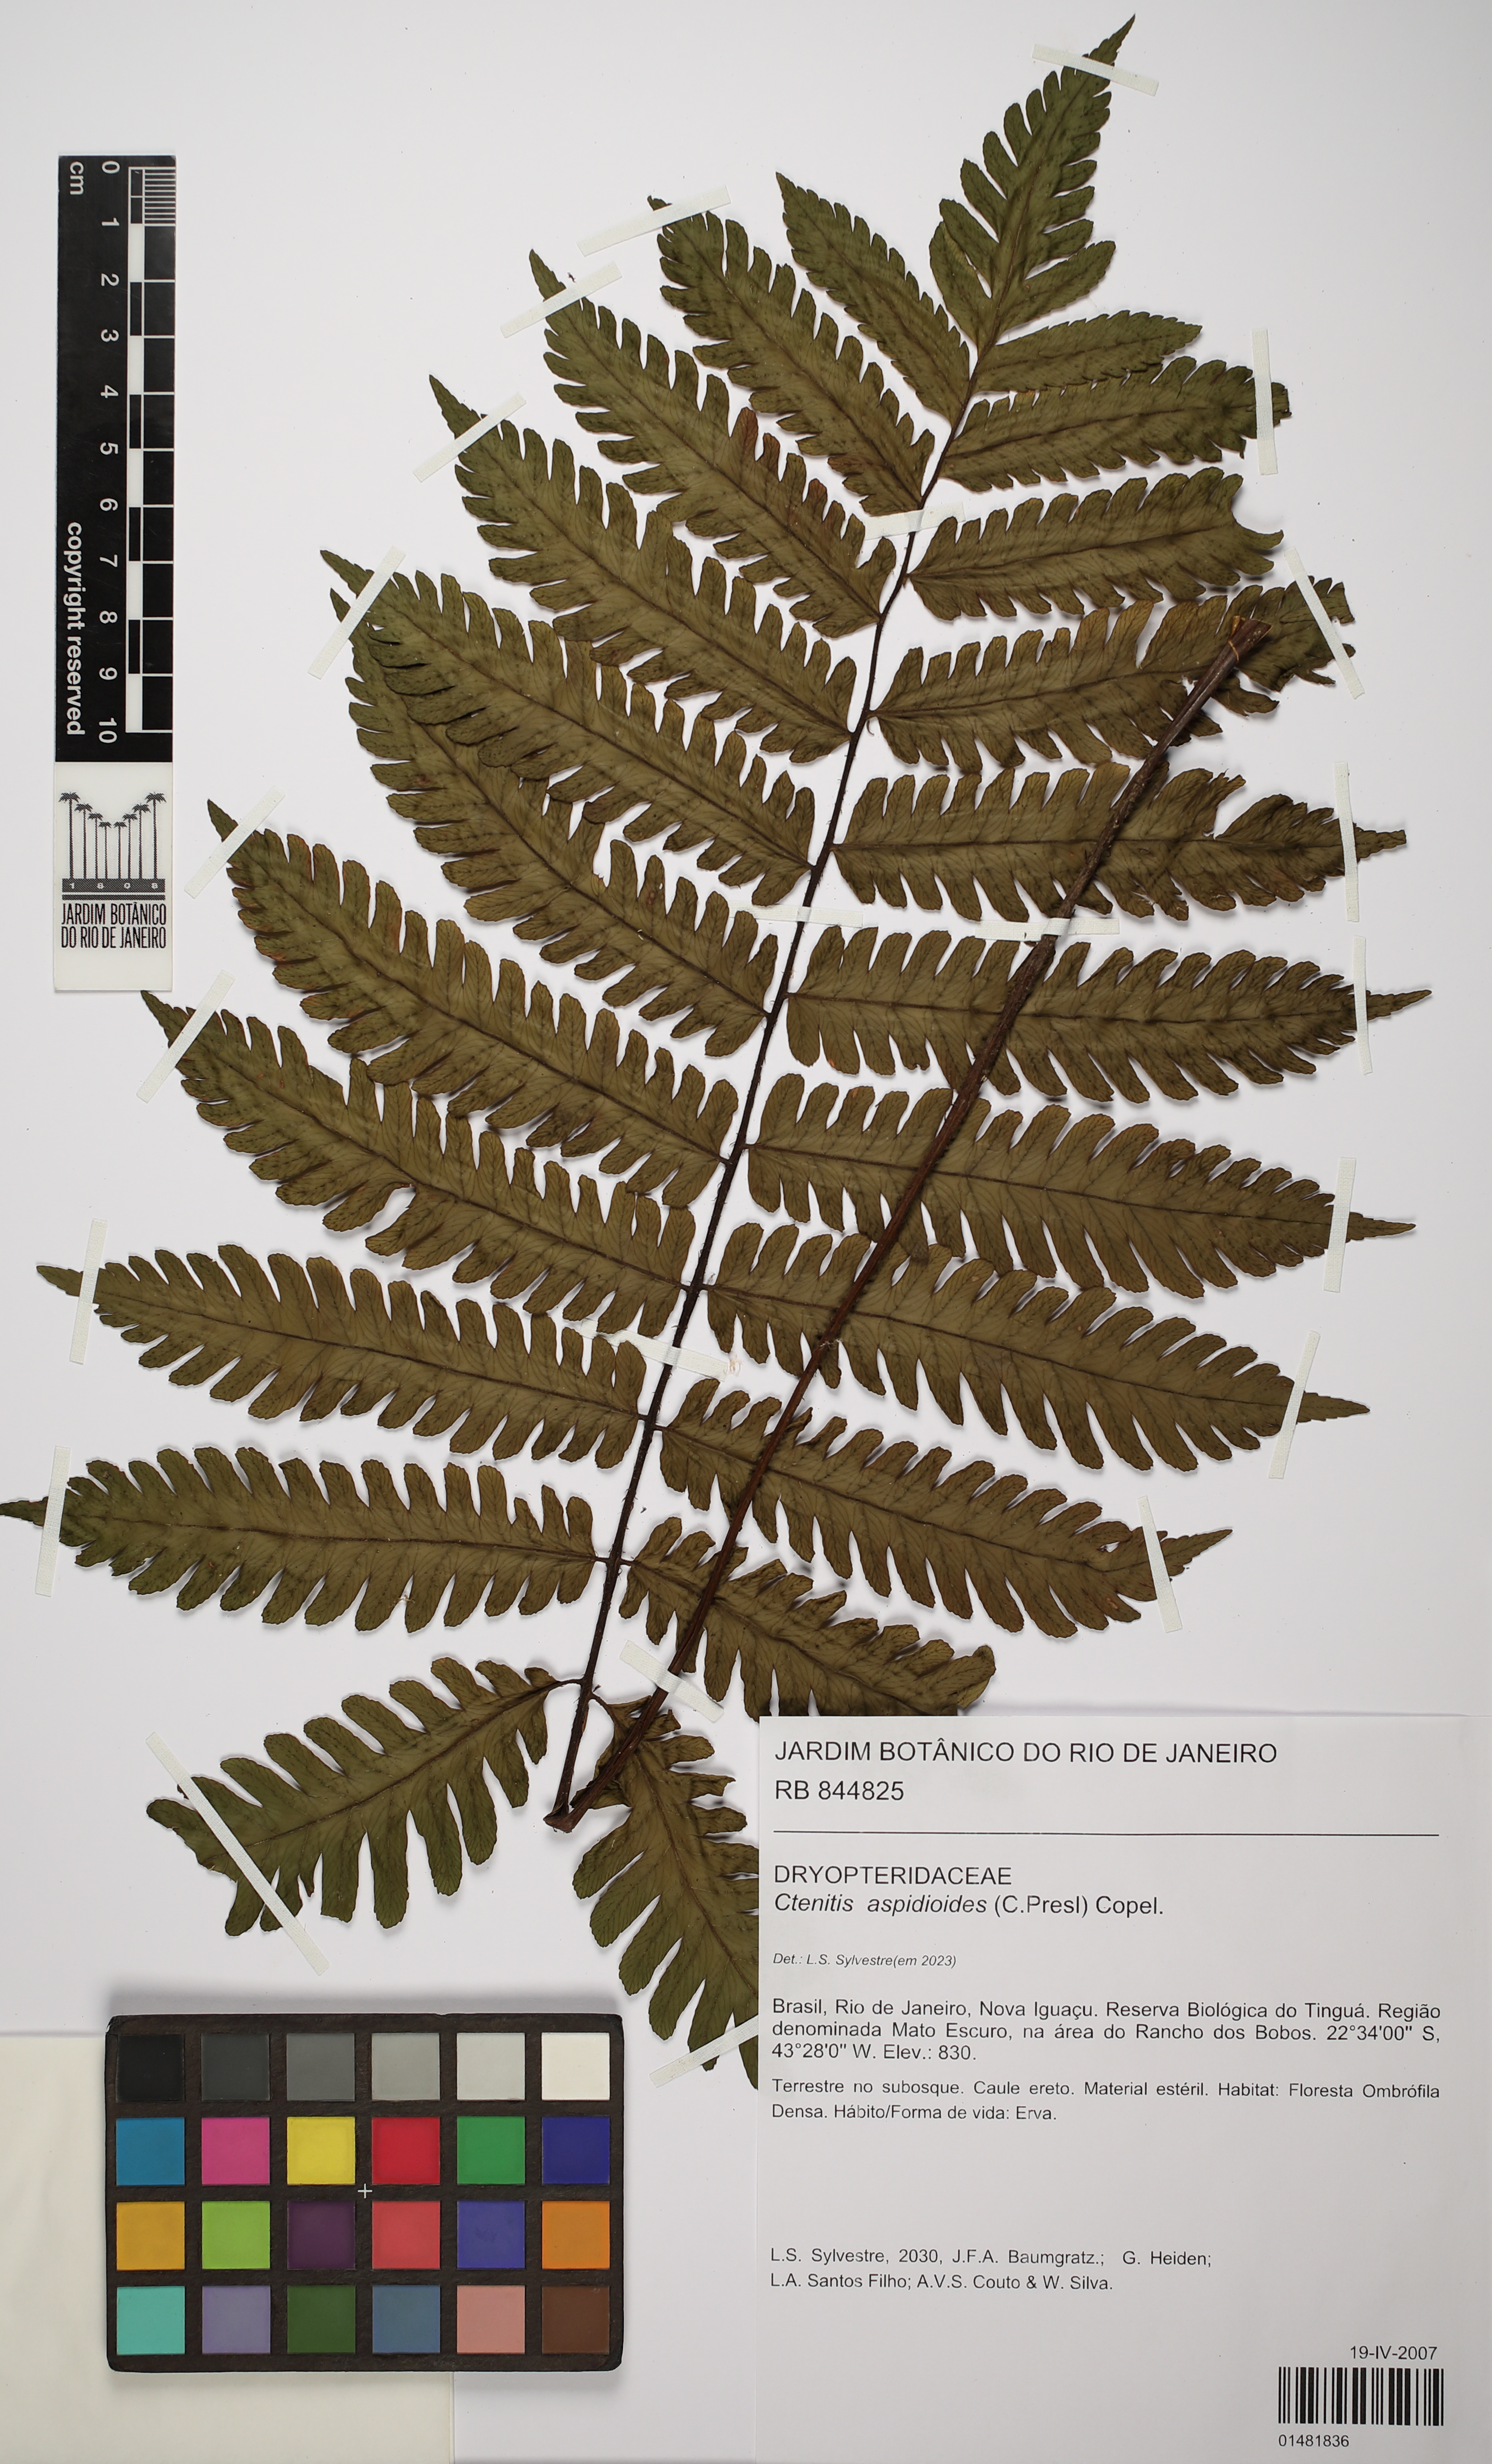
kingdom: Plantae
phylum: Tracheophyta
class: Polypodiopsida
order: Polypodiales
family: Dryopteridaceae
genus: Ctenitis
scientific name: Ctenitis aspidioides
